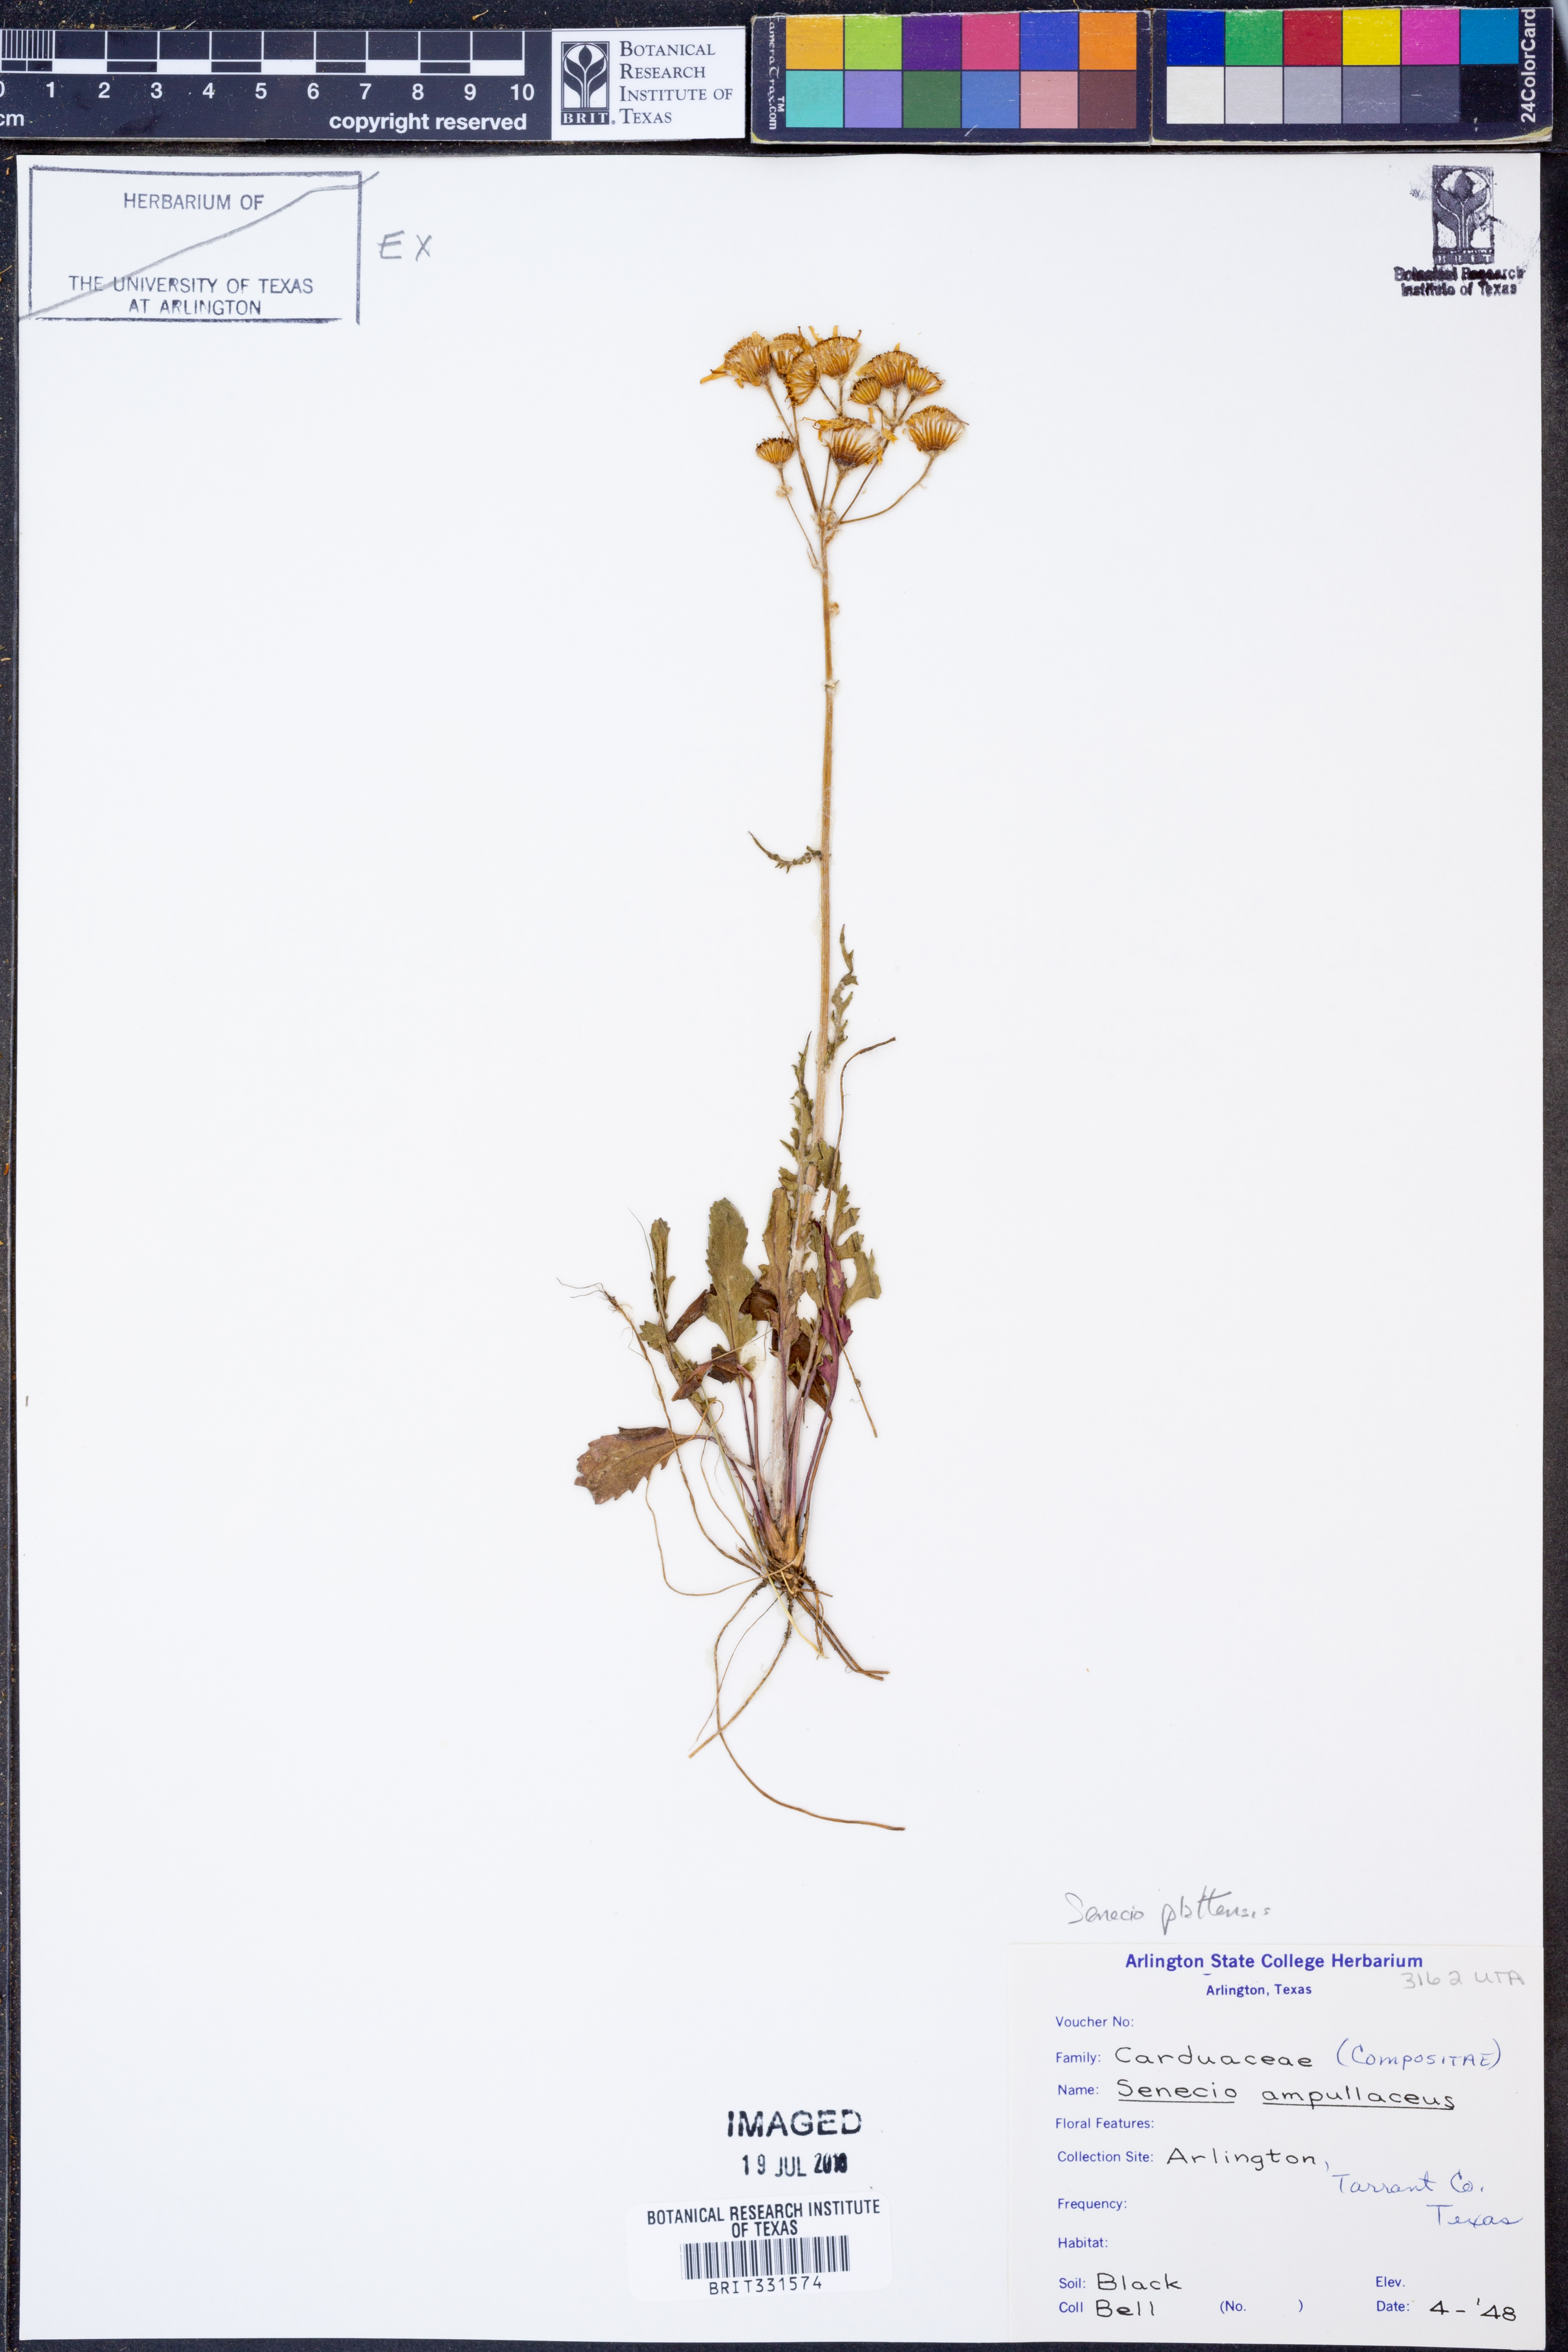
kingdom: Plantae
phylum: Tracheophyta
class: Magnoliopsida
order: Asterales
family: Asteraceae
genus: Packera
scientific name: Packera plattensis
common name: Prairie groundsel
